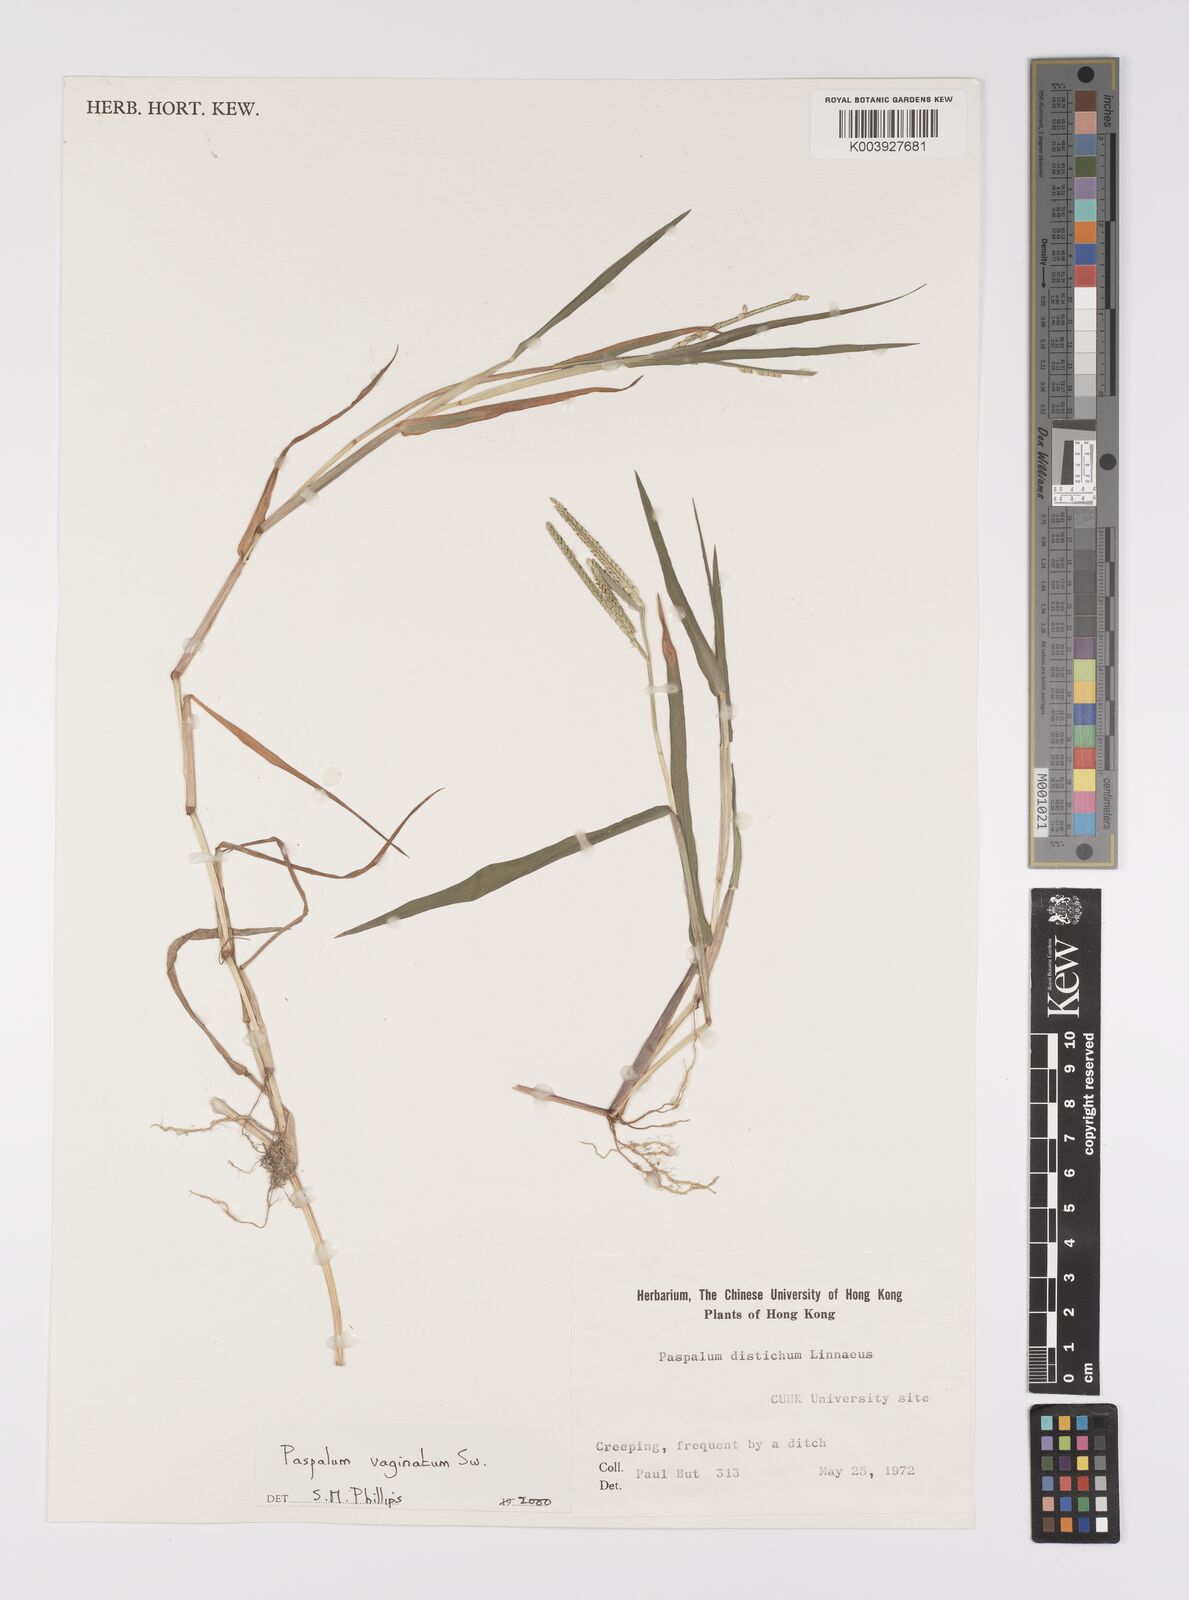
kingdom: Plantae
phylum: Tracheophyta
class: Liliopsida
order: Poales
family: Poaceae
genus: Paspalum
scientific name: Paspalum vaginatum
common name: Seashore paspalum
